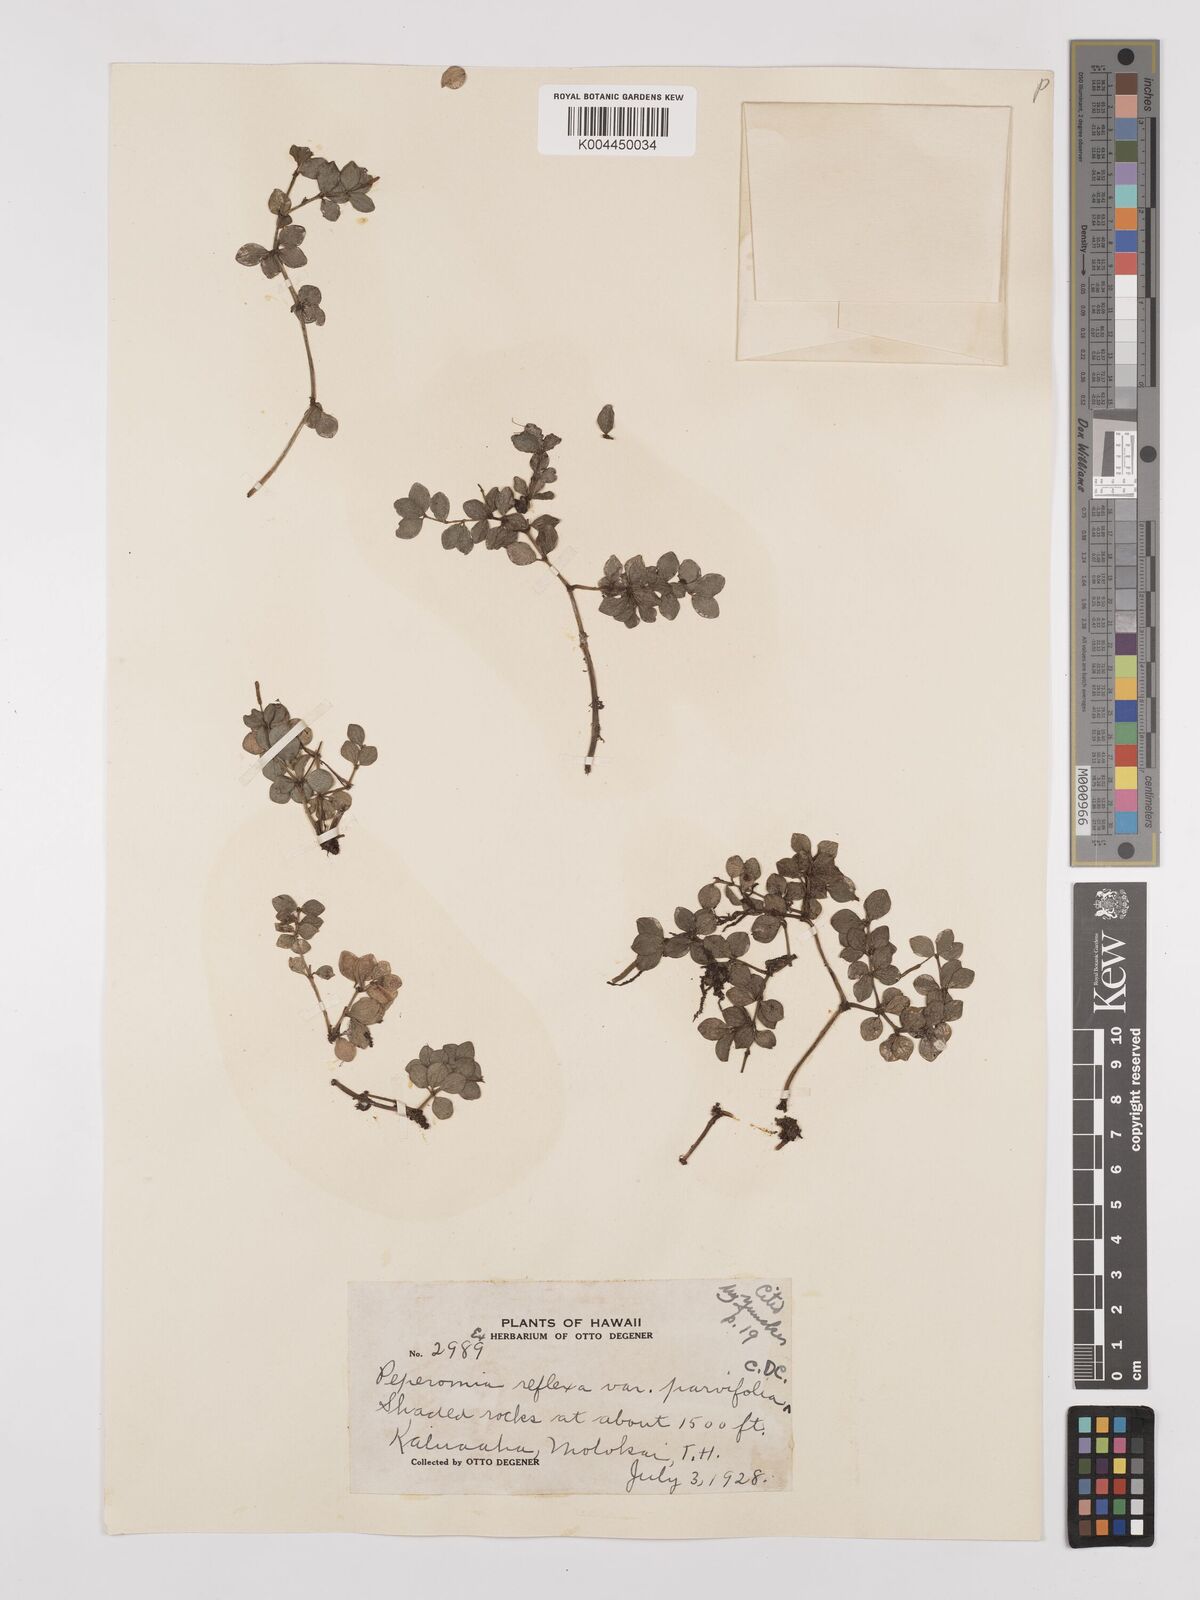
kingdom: Plantae
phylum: Tracheophyta
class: Magnoliopsida
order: Piperales
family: Piperaceae
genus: Peperomia
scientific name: Peperomia tetraphylla
